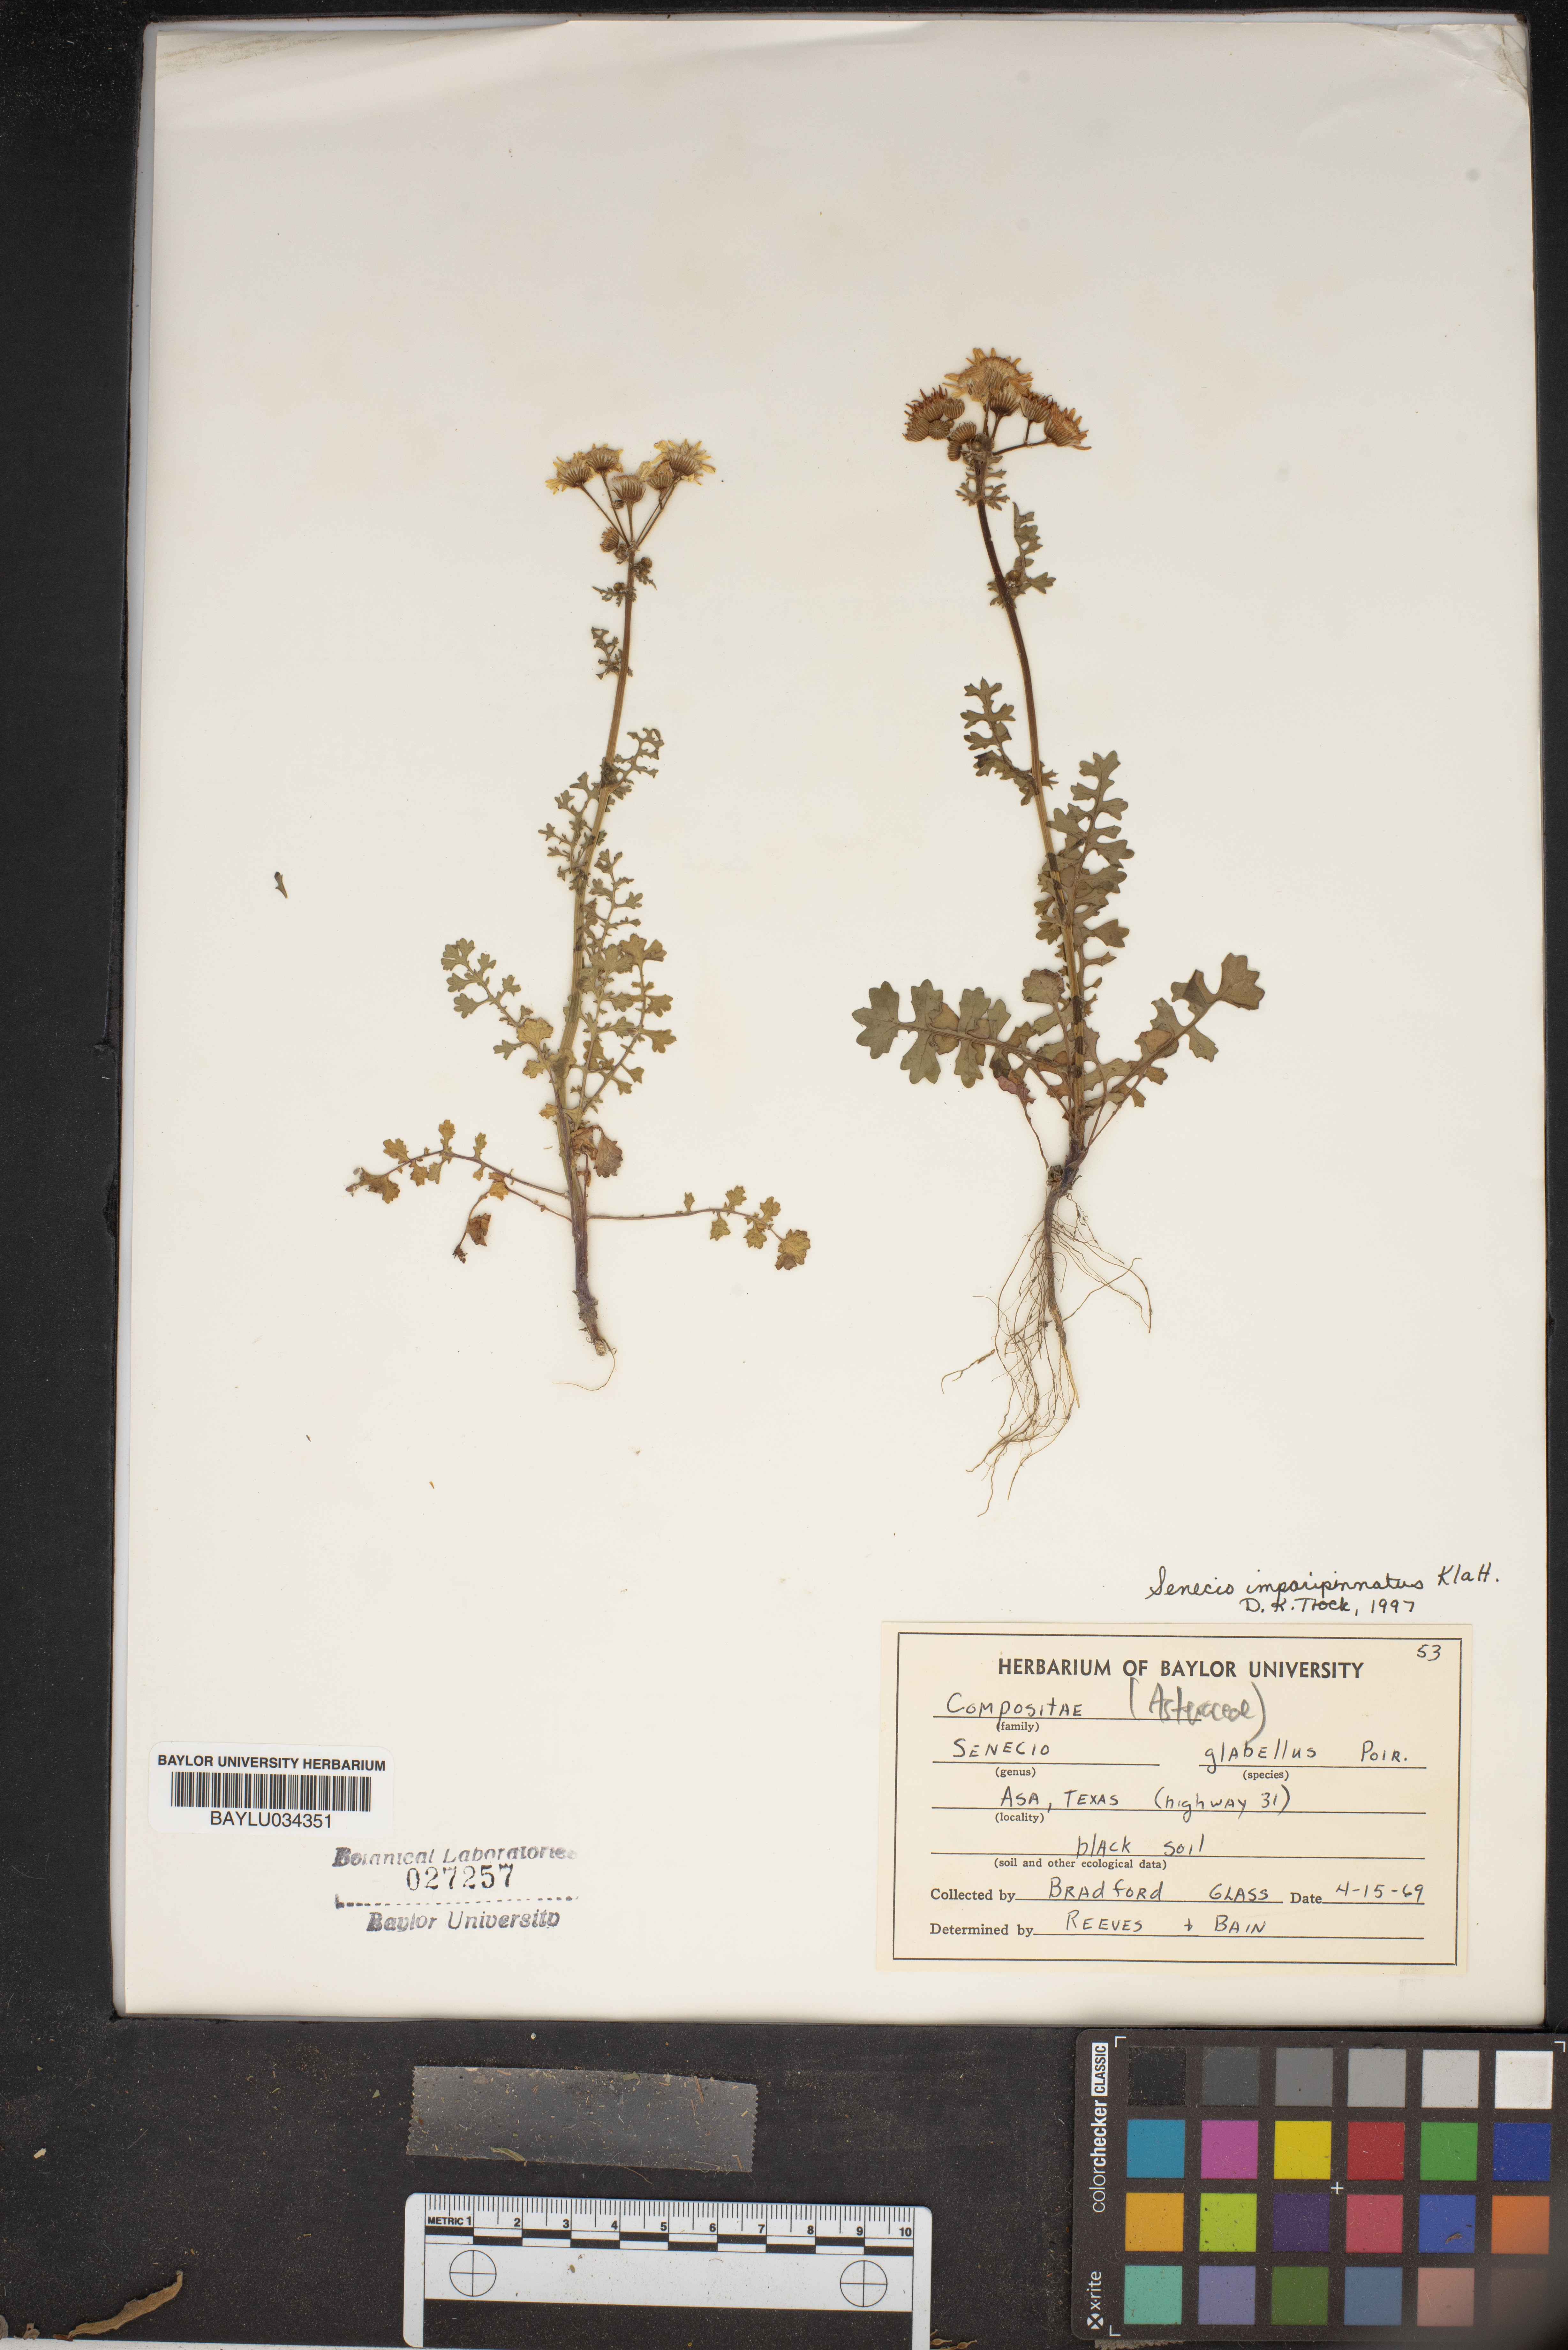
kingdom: Plantae
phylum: Tracheophyta
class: Magnoliopsida
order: Asterales
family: Asteraceae
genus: Tephroseris
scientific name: Tephroseris praticola
